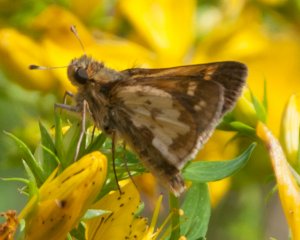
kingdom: Animalia
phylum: Arthropoda
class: Insecta
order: Lepidoptera
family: Hesperiidae
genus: Polites
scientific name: Polites coras
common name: Peck's Skipper
